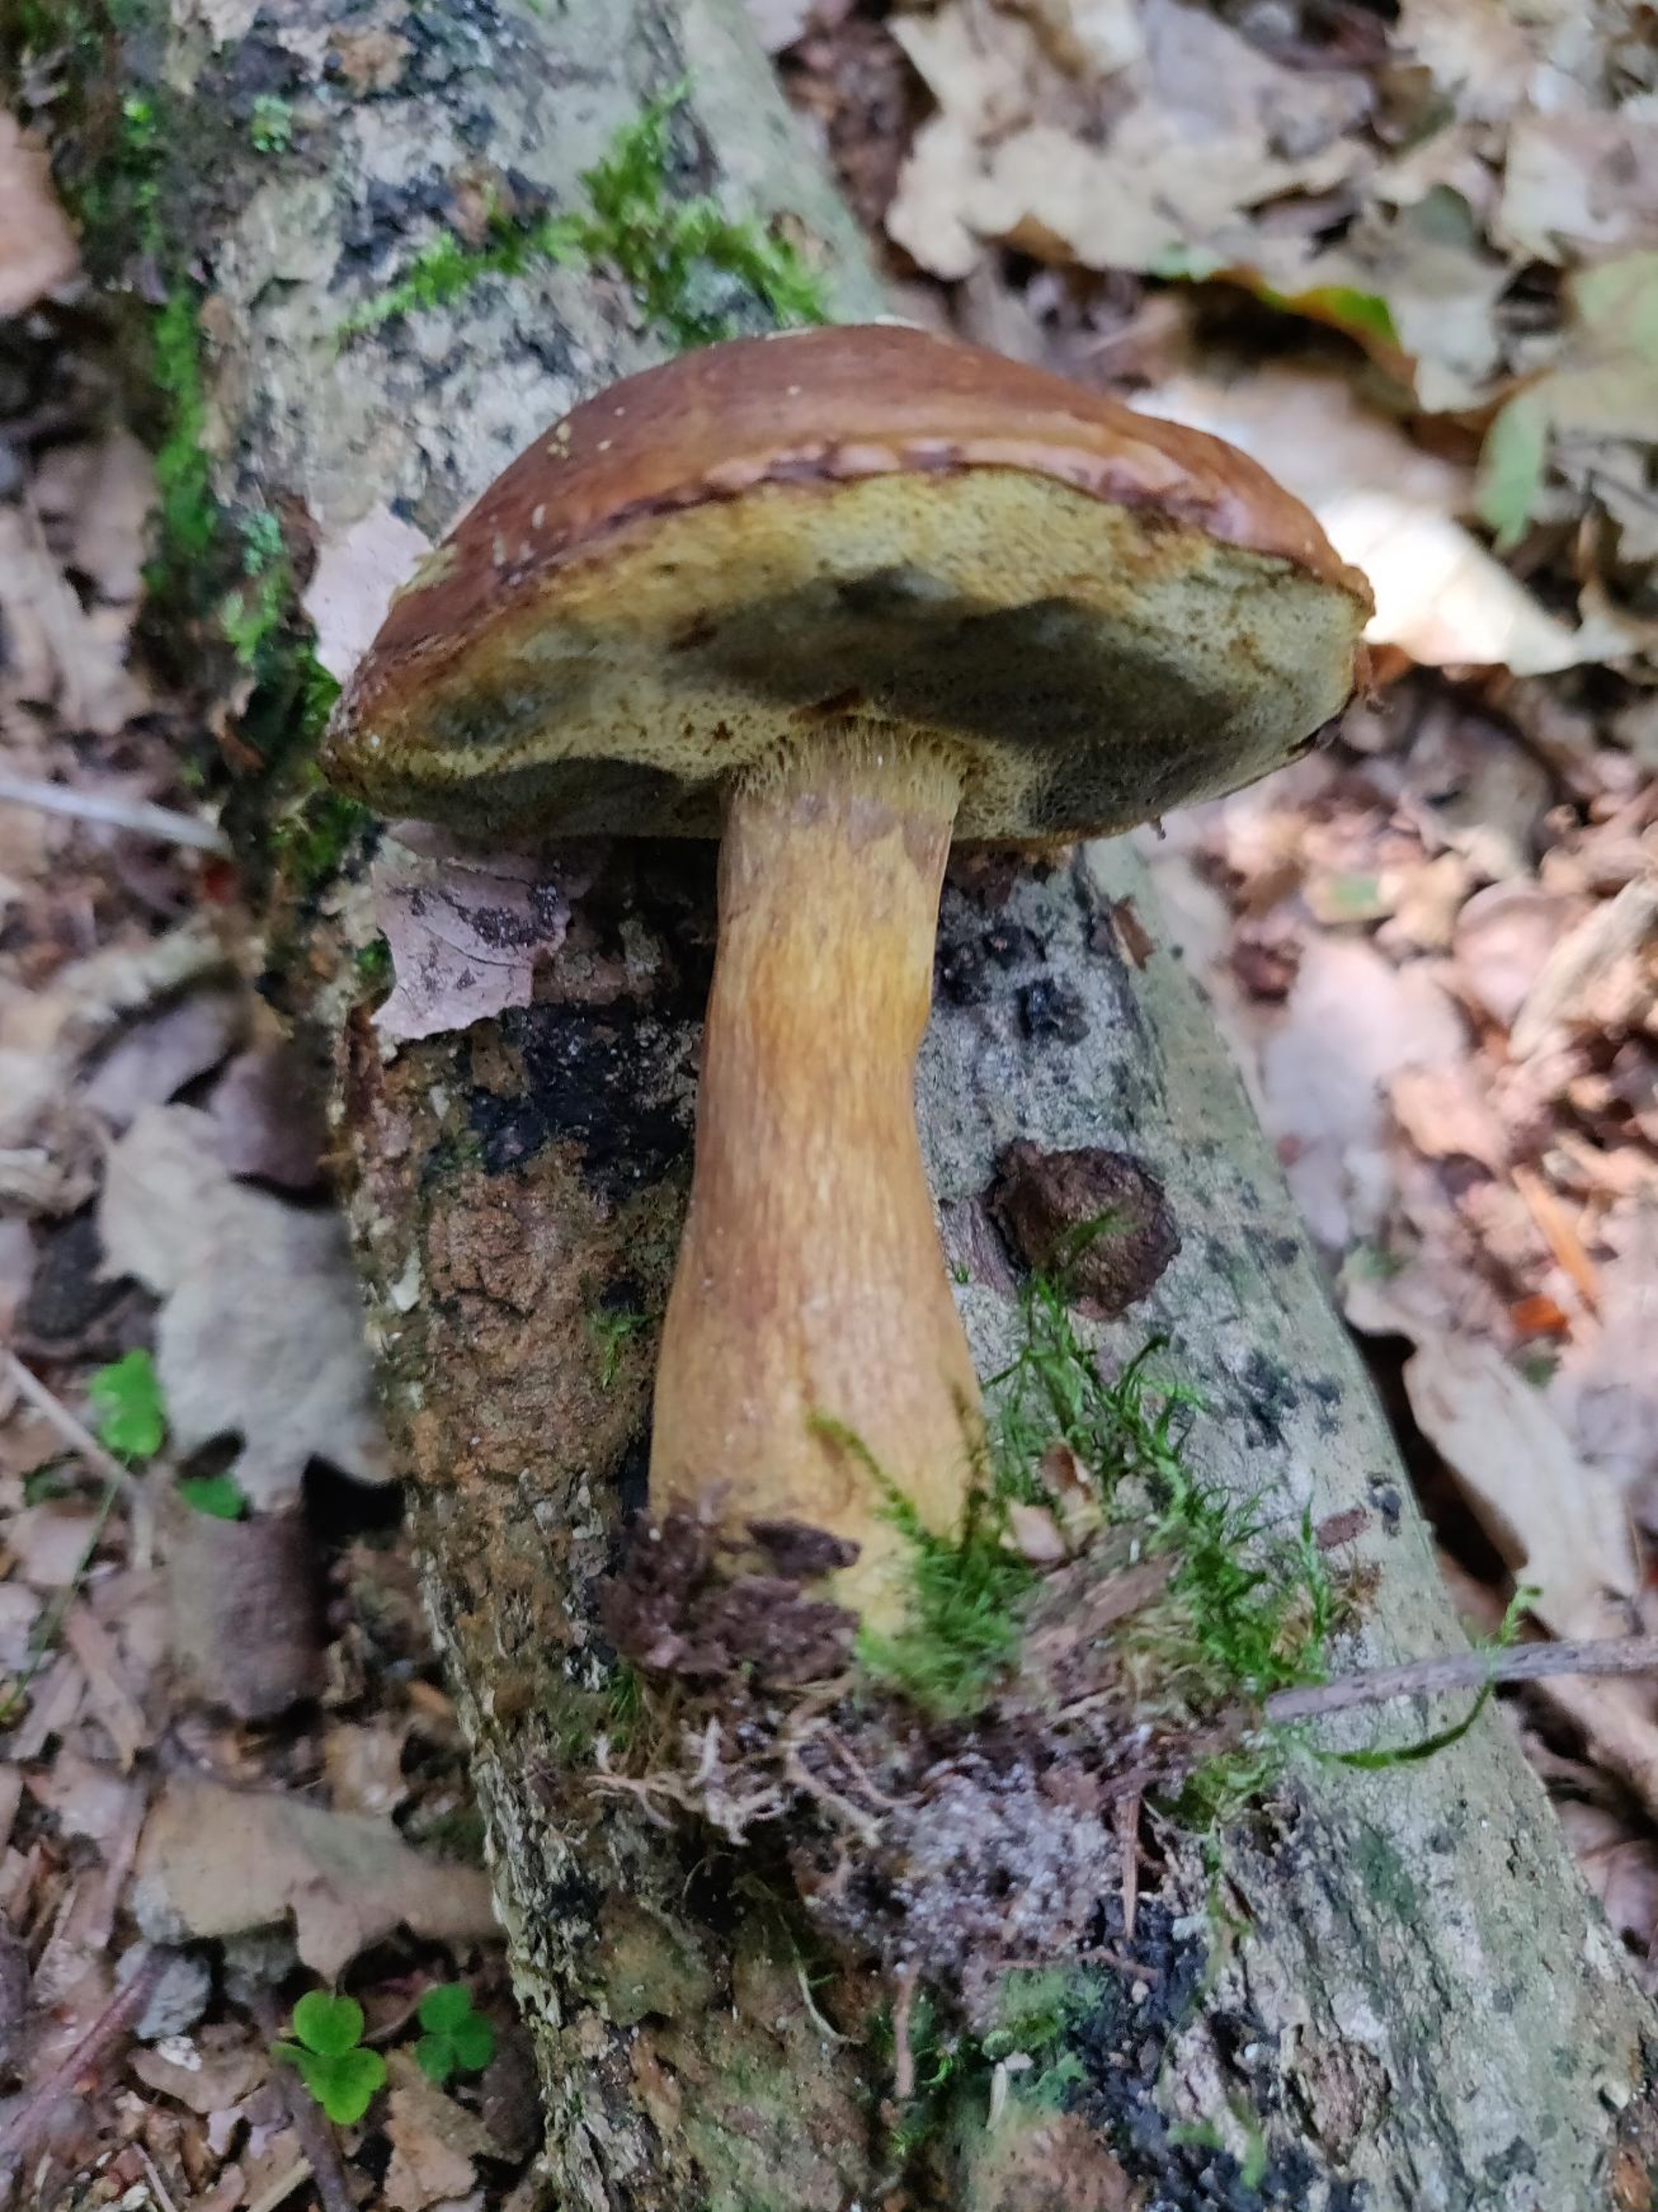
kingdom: Fungi
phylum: Basidiomycota
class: Agaricomycetes
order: Boletales
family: Boletaceae
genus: Imleria
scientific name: Imleria badia
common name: Brunstokket rørhat
